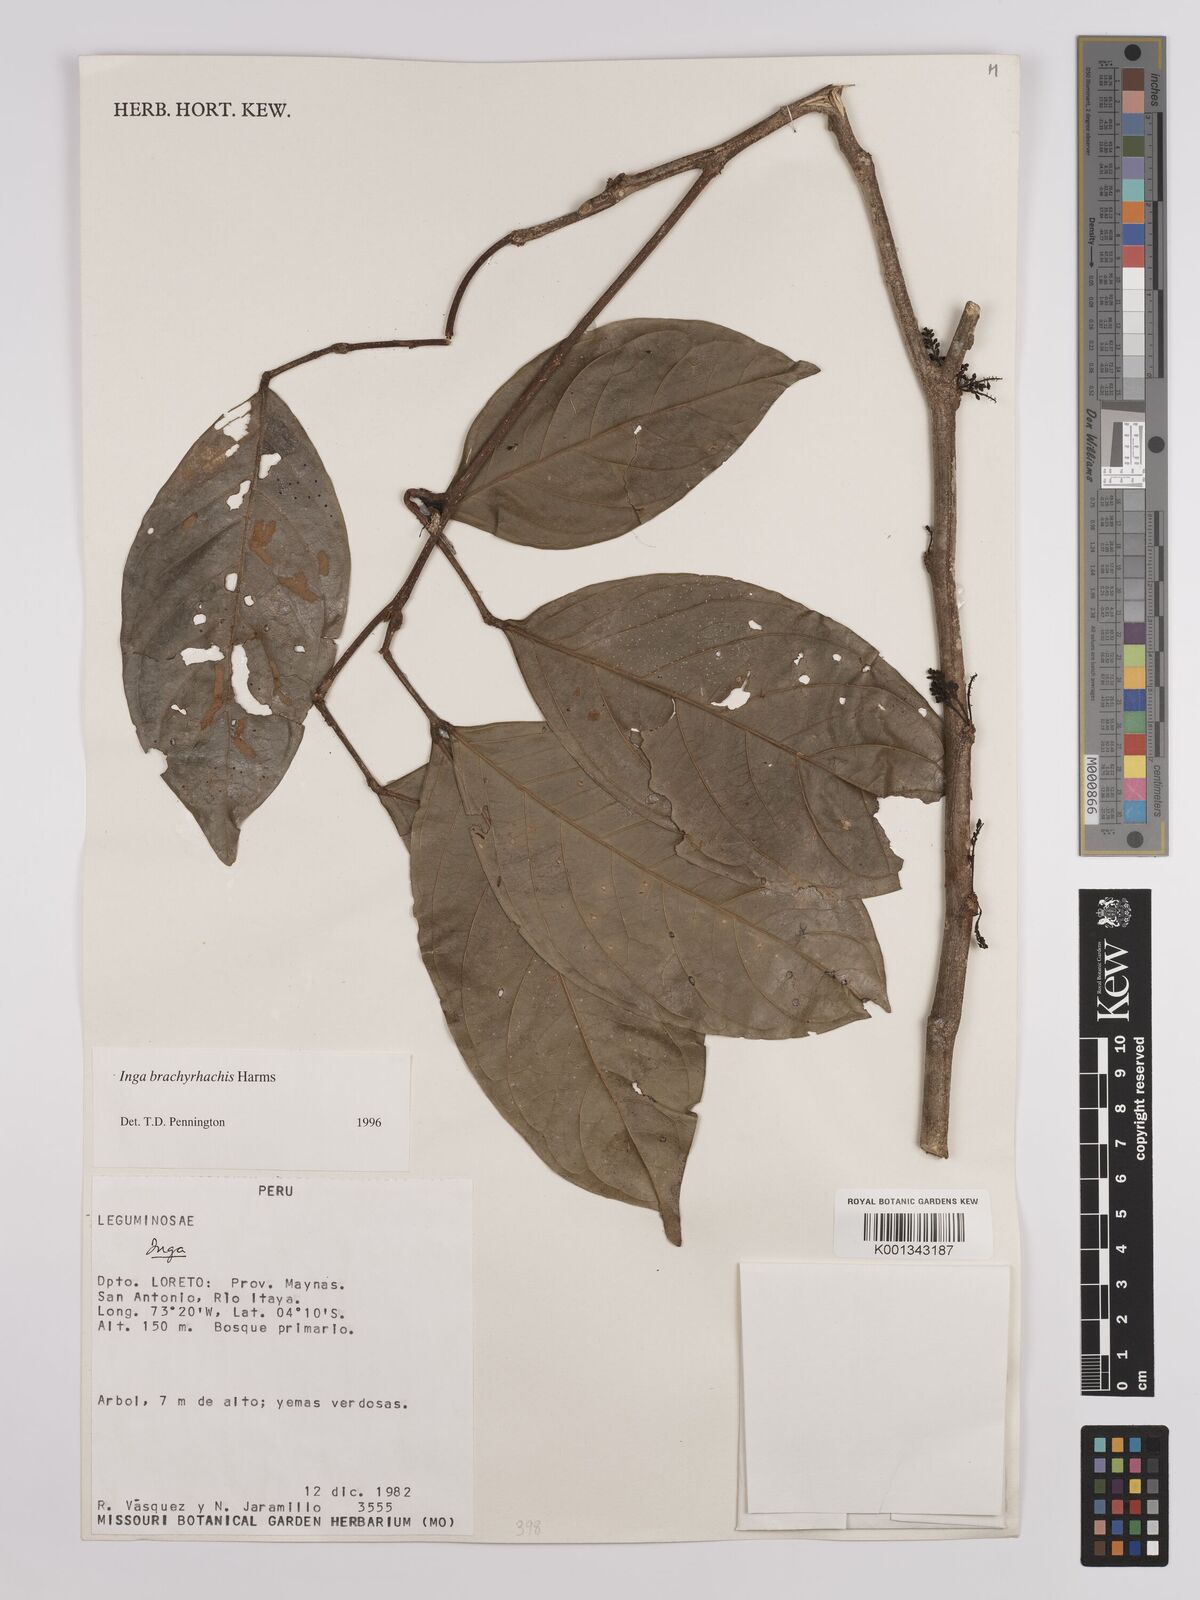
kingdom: Plantae
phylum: Tracheophyta
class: Magnoliopsida
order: Fabales
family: Fabaceae
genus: Inga
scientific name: Inga brachyrhachis
